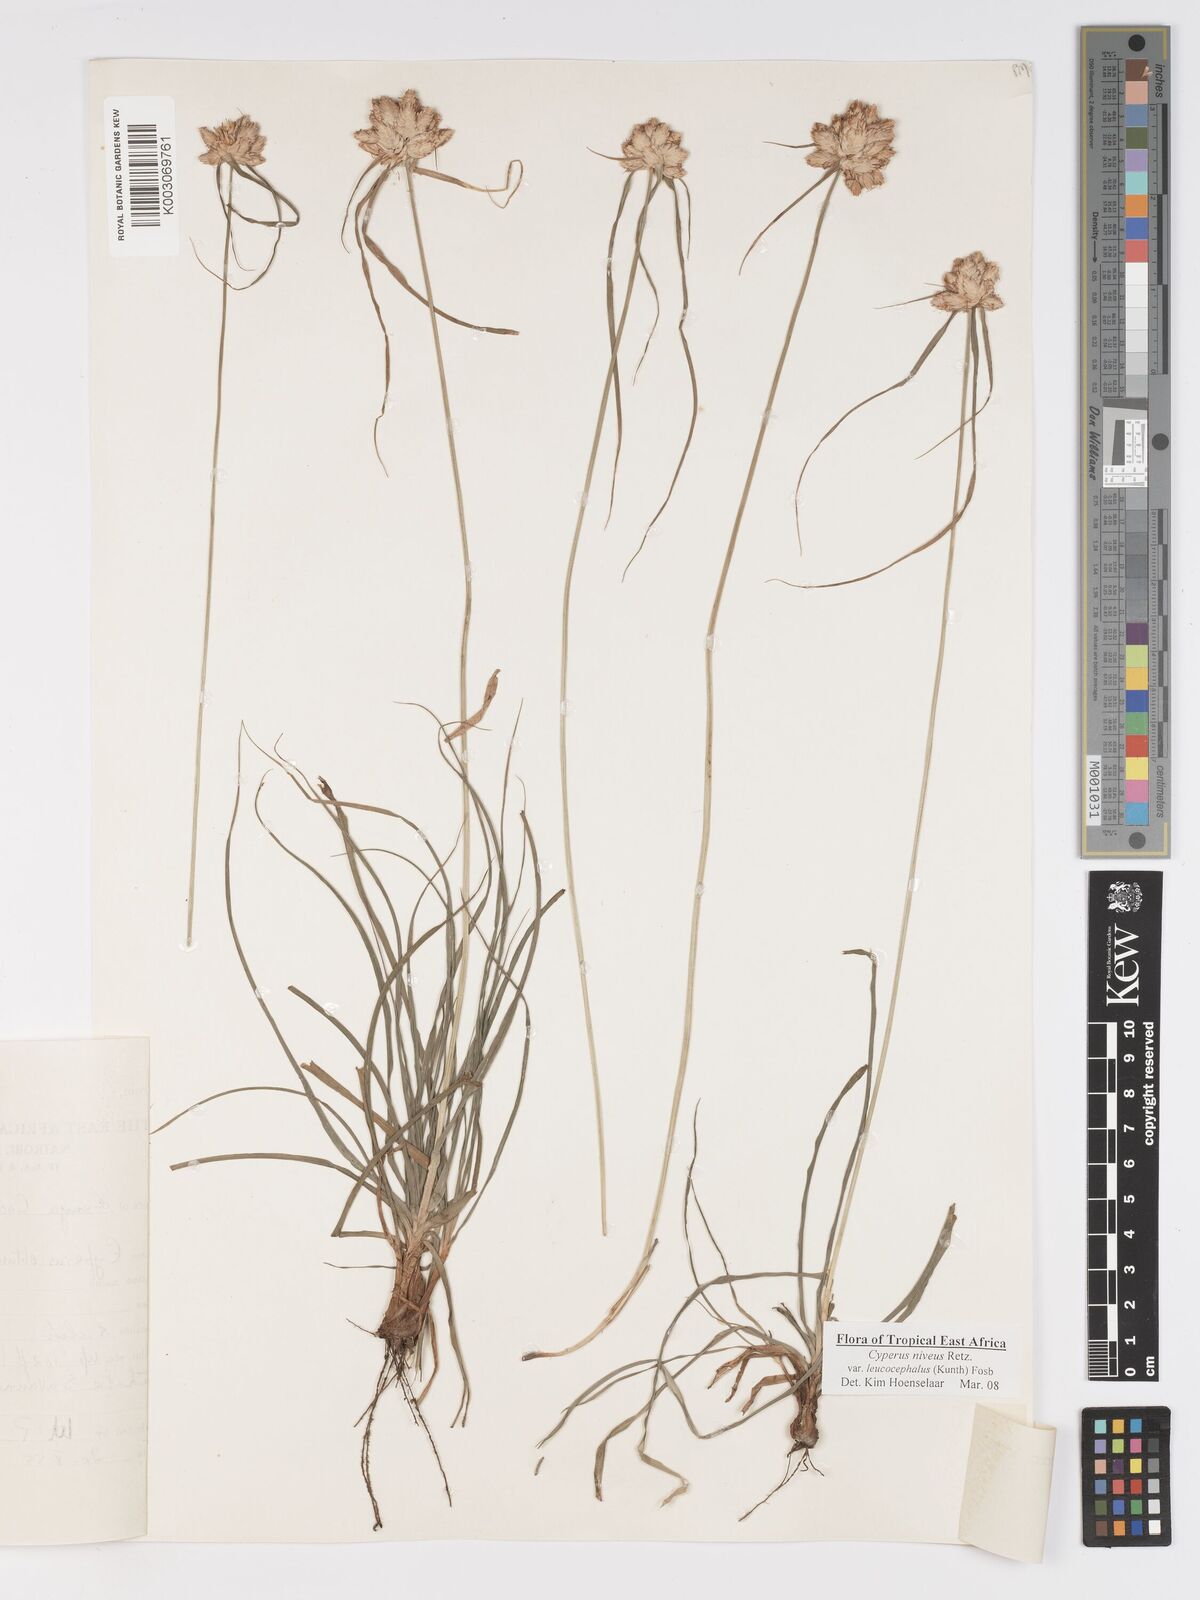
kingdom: Plantae
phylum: Tracheophyta
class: Liliopsida
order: Poales
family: Cyperaceae
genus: Cyperus
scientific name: Cyperus niveus
